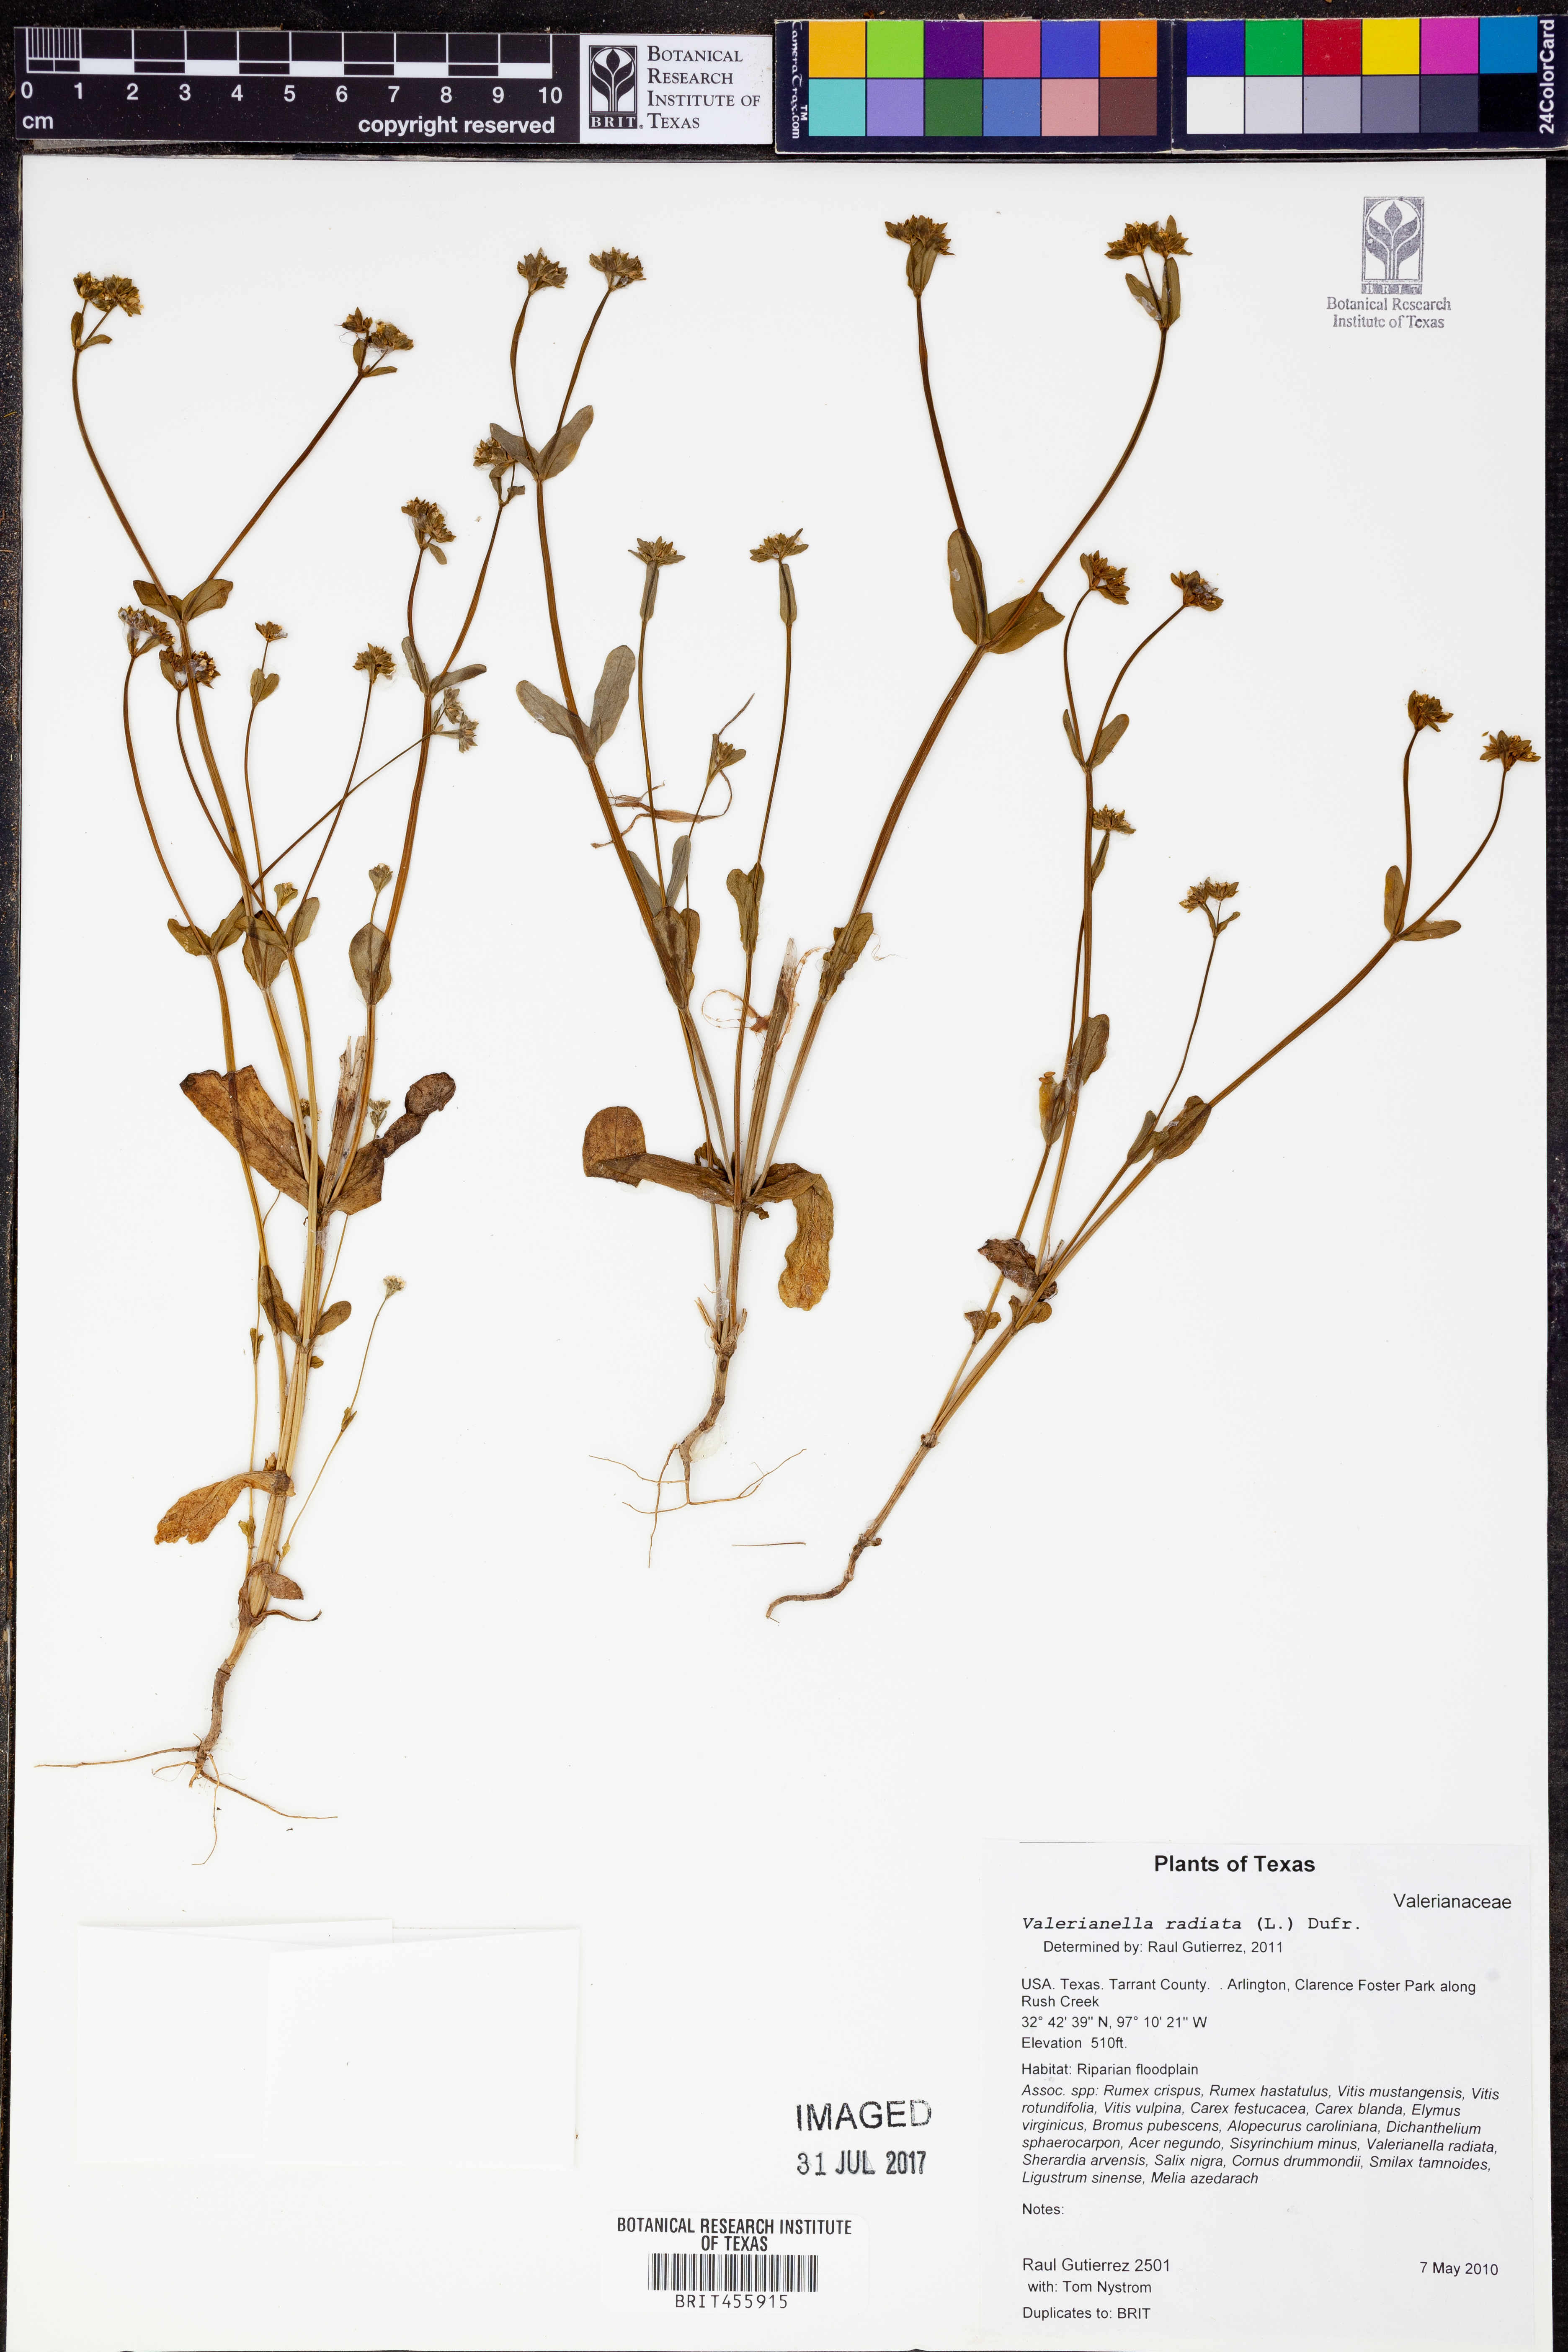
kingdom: Plantae
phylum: Tracheophyta
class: Magnoliopsida
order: Dipsacales
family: Caprifoliaceae
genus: Valerianella
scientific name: Valerianella radiata
